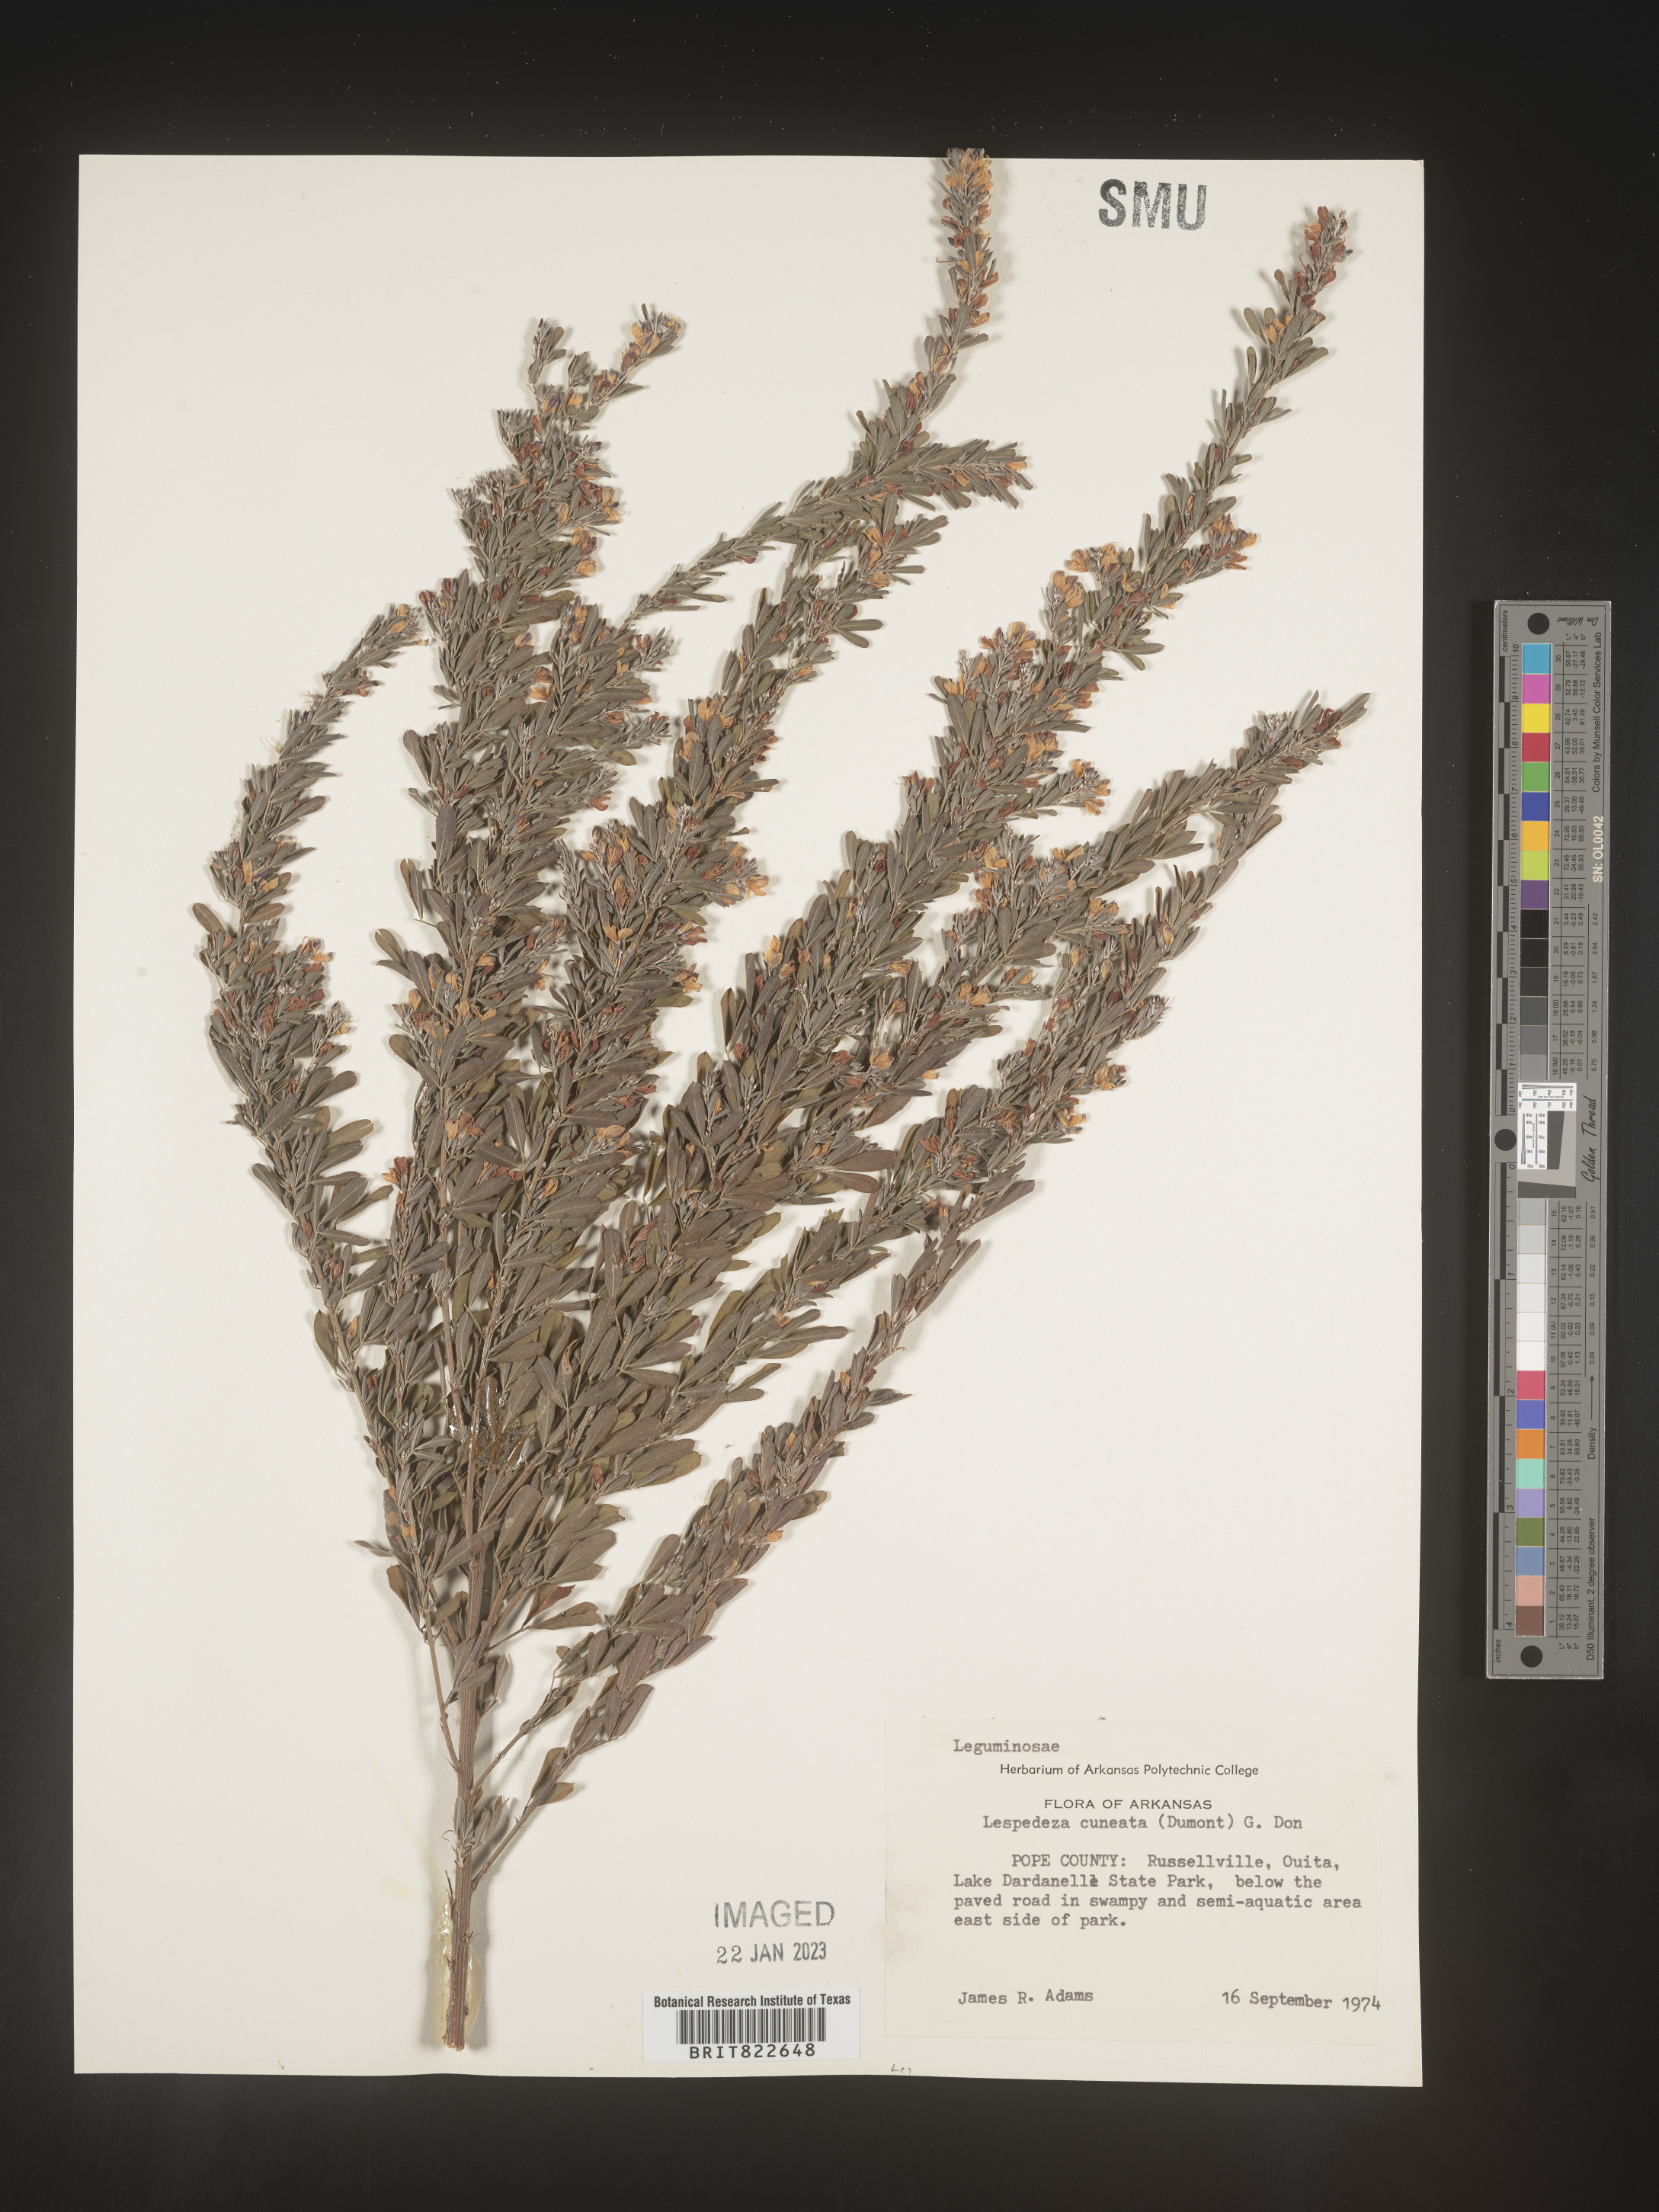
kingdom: Plantae
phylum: Tracheophyta
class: Magnoliopsida
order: Fabales
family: Fabaceae
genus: Lespedeza
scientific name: Lespedeza cuneata
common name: Chinese bush-clover
